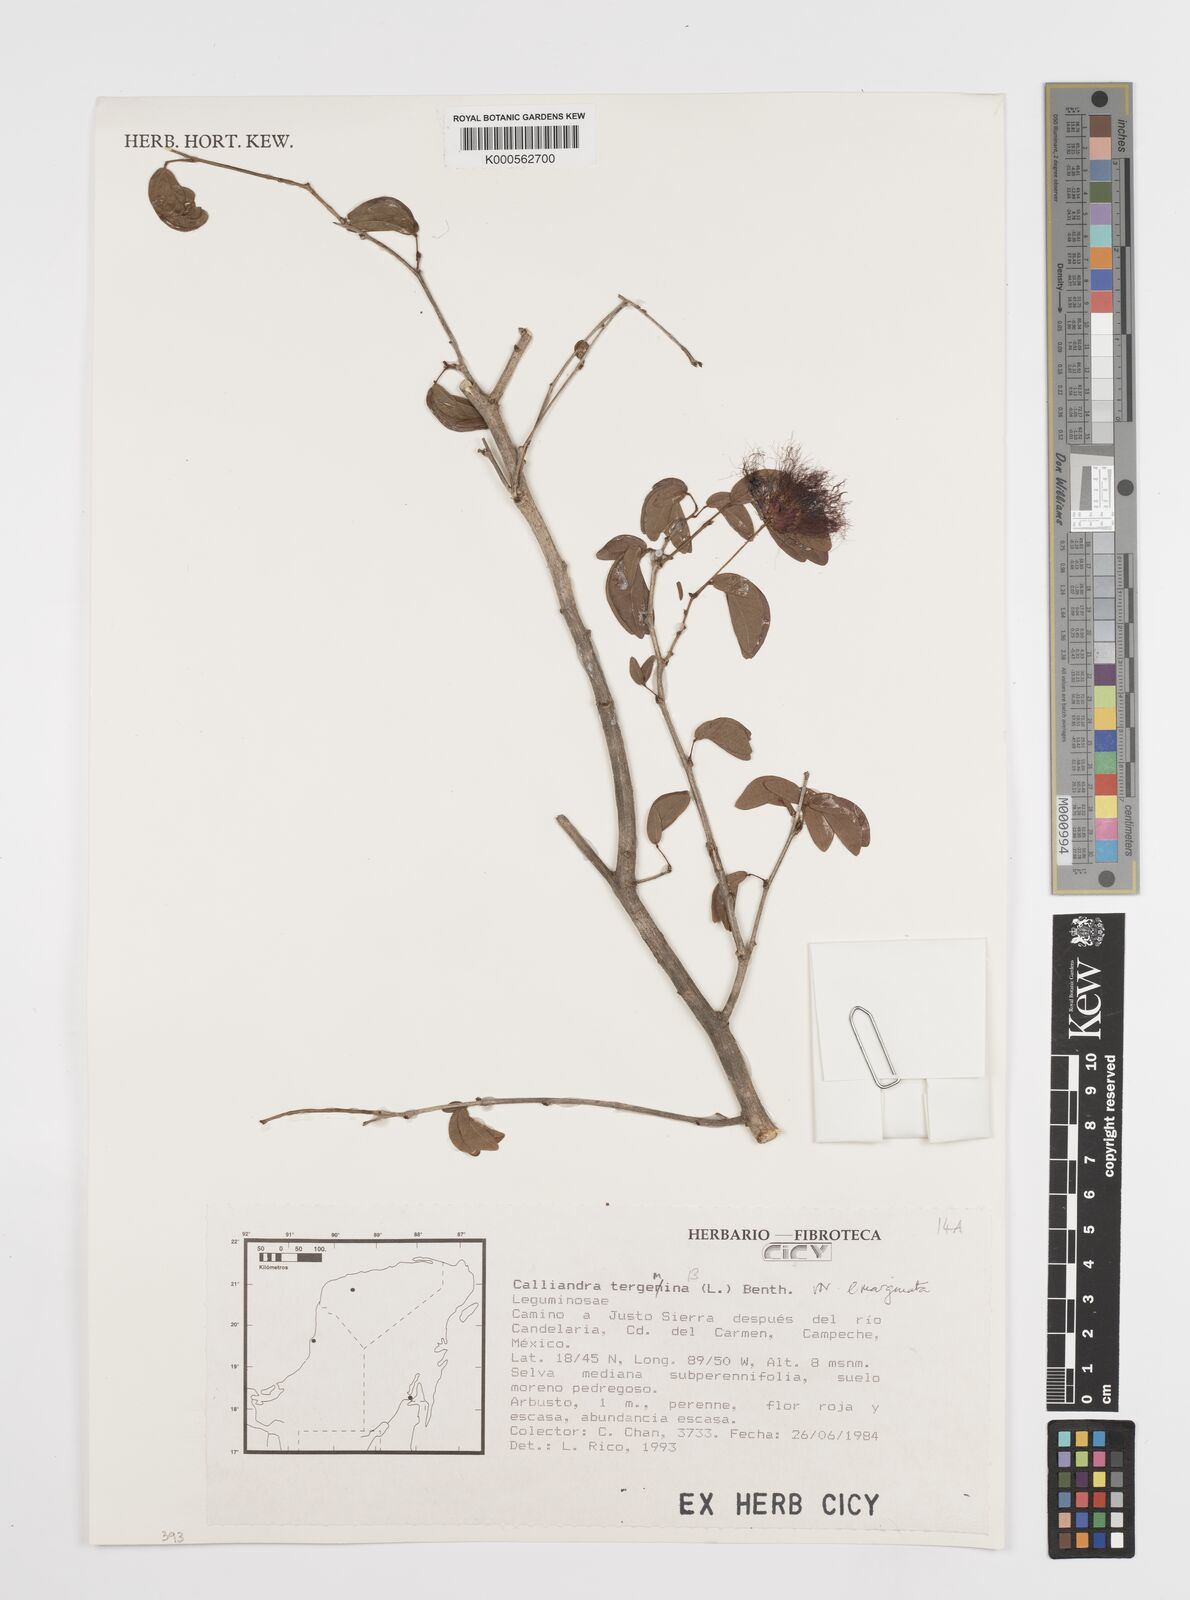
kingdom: Plantae
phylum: Tracheophyta
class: Magnoliopsida
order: Fabales
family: Fabaceae
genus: Calliandra
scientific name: Calliandra tergemina
